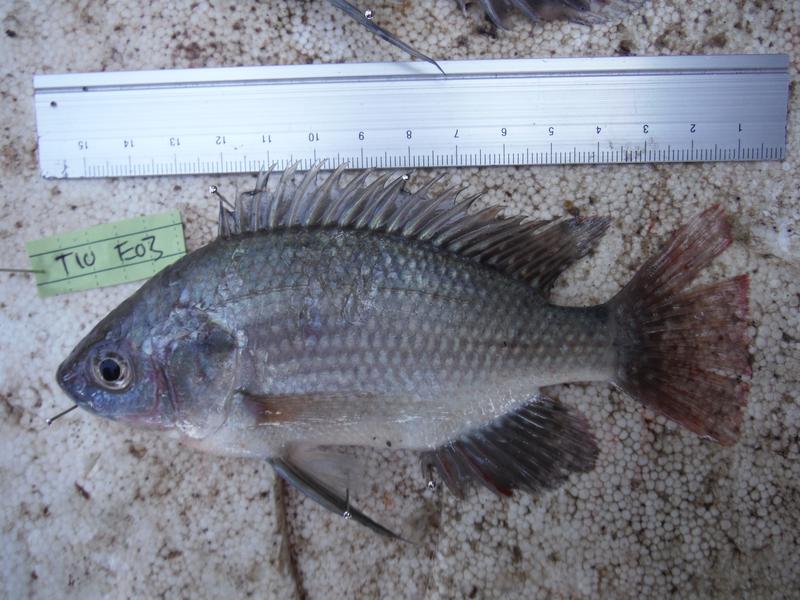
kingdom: Animalia
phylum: Chordata
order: Perciformes
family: Cichlidae
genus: Oreochromis
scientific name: Oreochromis esculentus
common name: Carp
